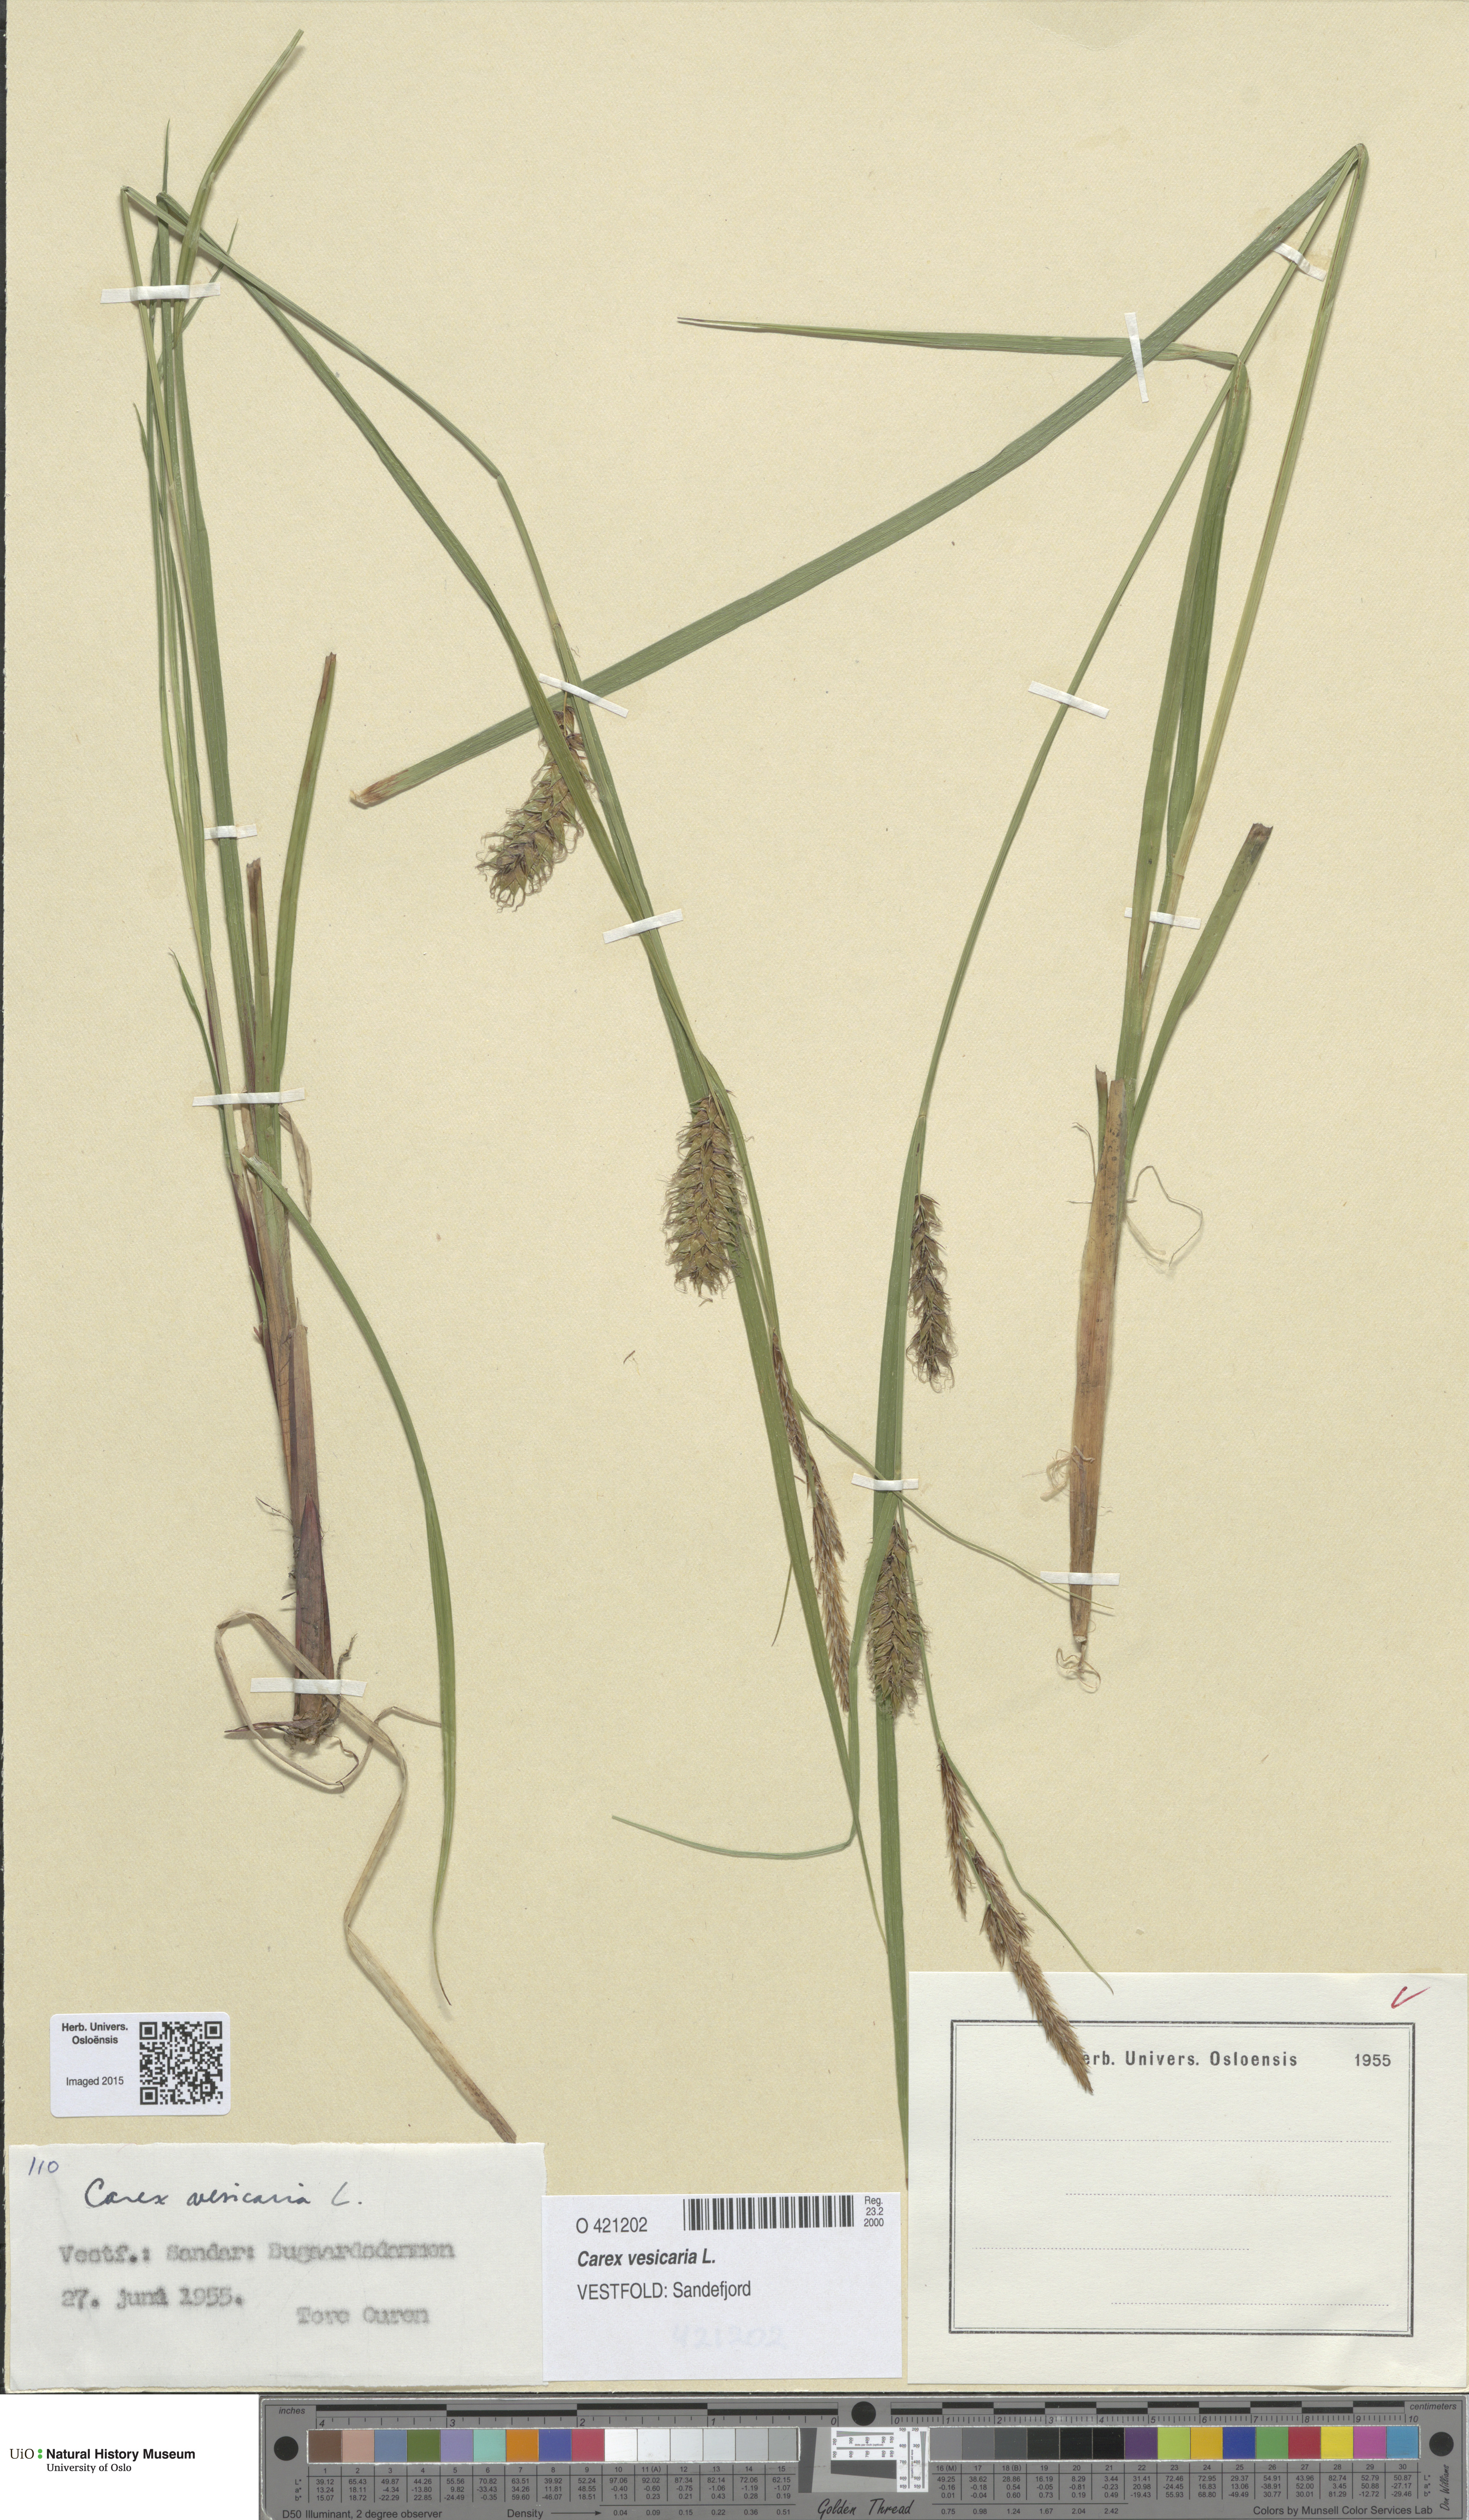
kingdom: Plantae
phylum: Tracheophyta
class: Liliopsida
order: Poales
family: Cyperaceae
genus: Carex
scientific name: Carex vesicaria
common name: Bladder-sedge
